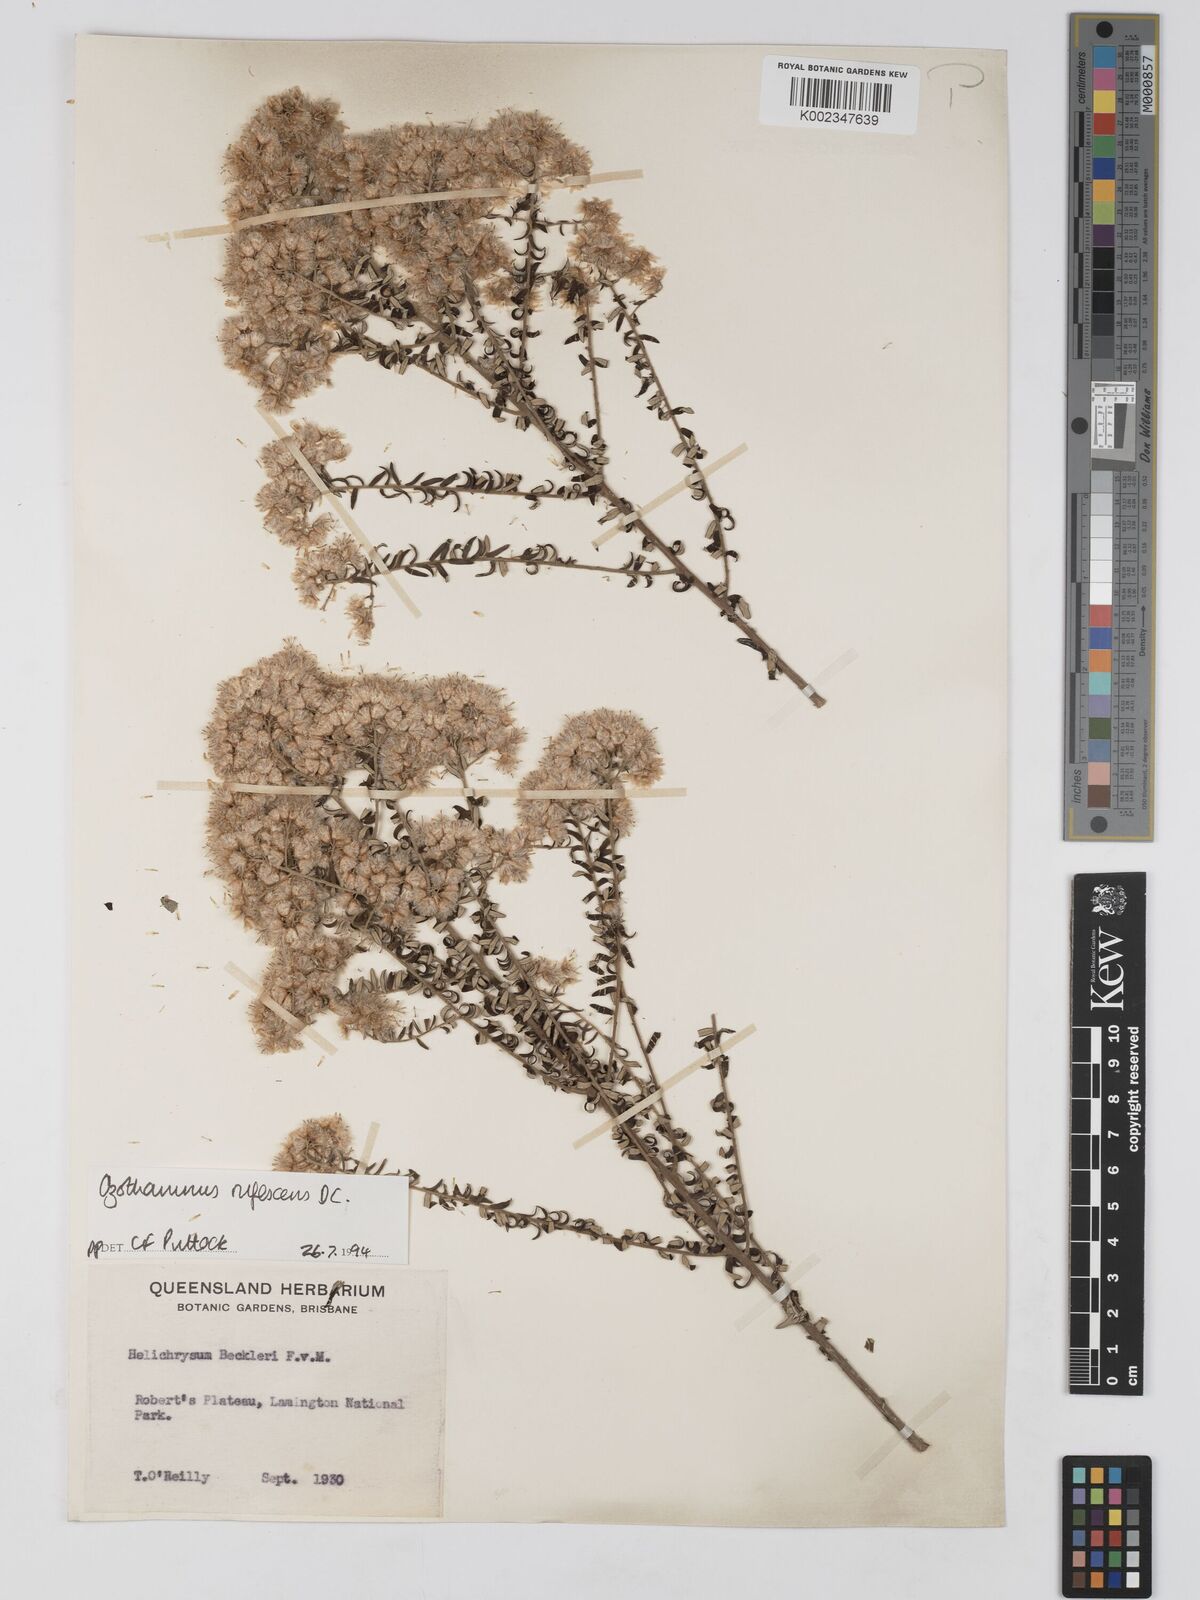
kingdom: Plantae
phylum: Tracheophyta
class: Magnoliopsida
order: Asterales
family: Asteraceae
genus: Ozothamnus
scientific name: Ozothamnus rufescens
